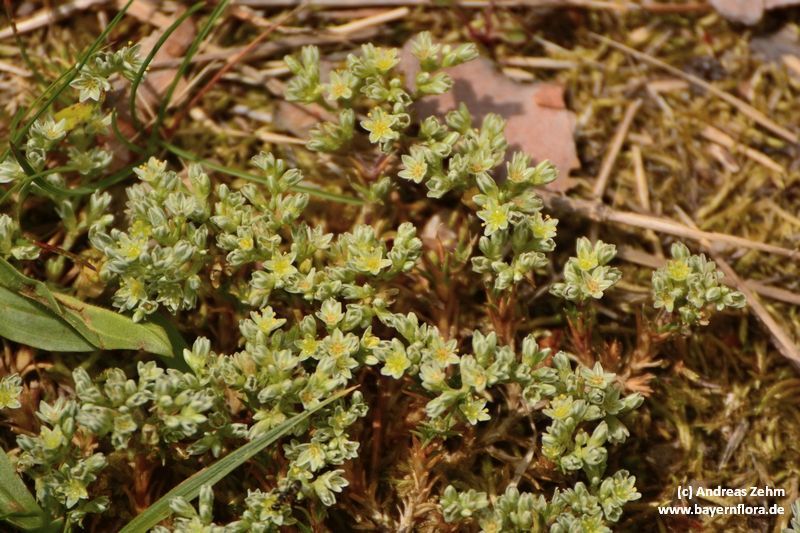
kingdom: Plantae
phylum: Tracheophyta
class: Magnoliopsida
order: Caryophyllales
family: Caryophyllaceae
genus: Scleranthus
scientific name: Scleranthus perennis
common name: Perennial knawel
